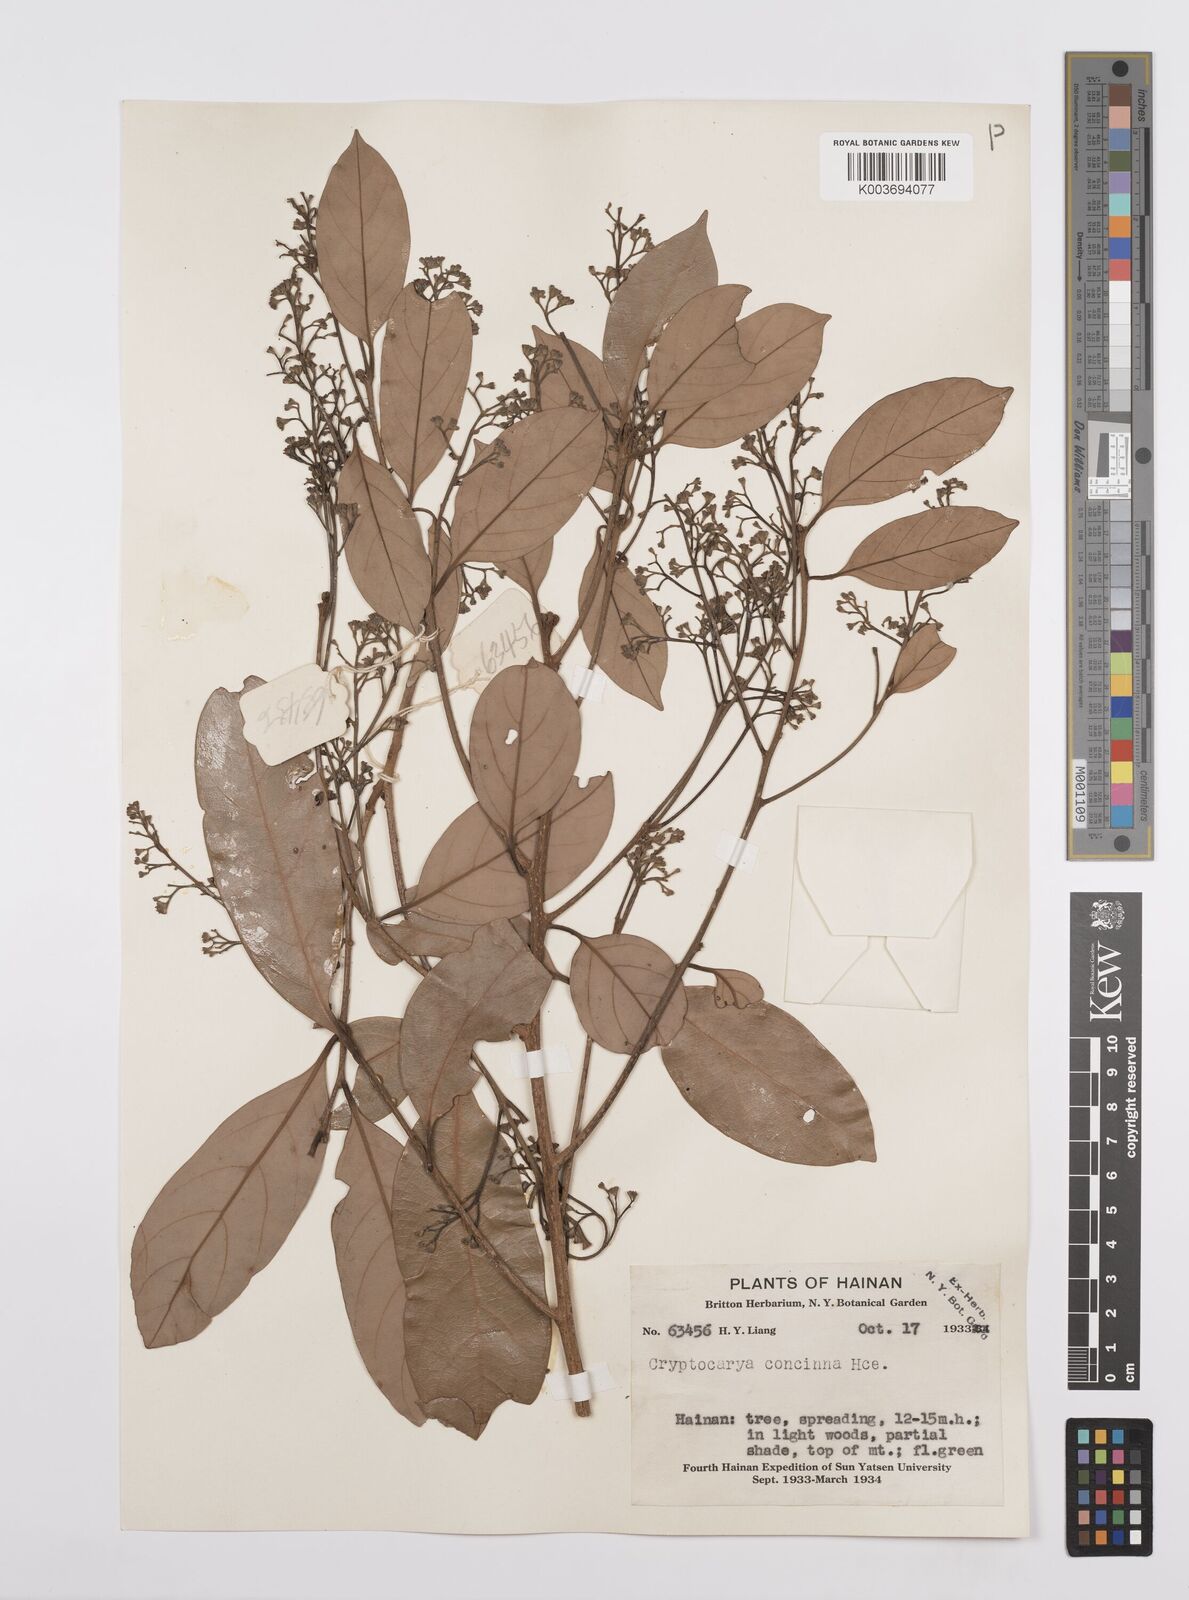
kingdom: Plantae
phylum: Tracheophyta
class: Magnoliopsida
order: Laurales
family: Lauraceae
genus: Cryptocarya
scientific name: Cryptocarya concinna
